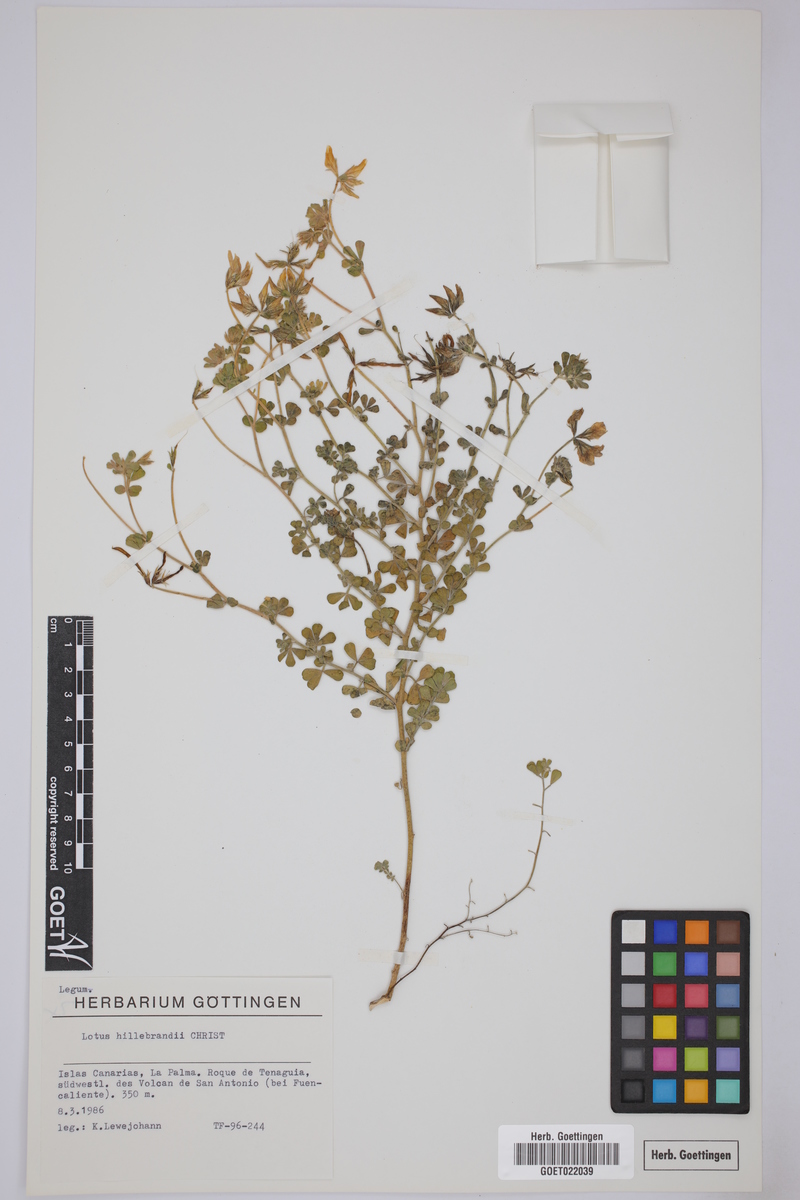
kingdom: Plantae
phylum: Tracheophyta
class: Magnoliopsida
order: Fabales
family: Fabaceae
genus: Lotus
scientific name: Lotus campylocladus
